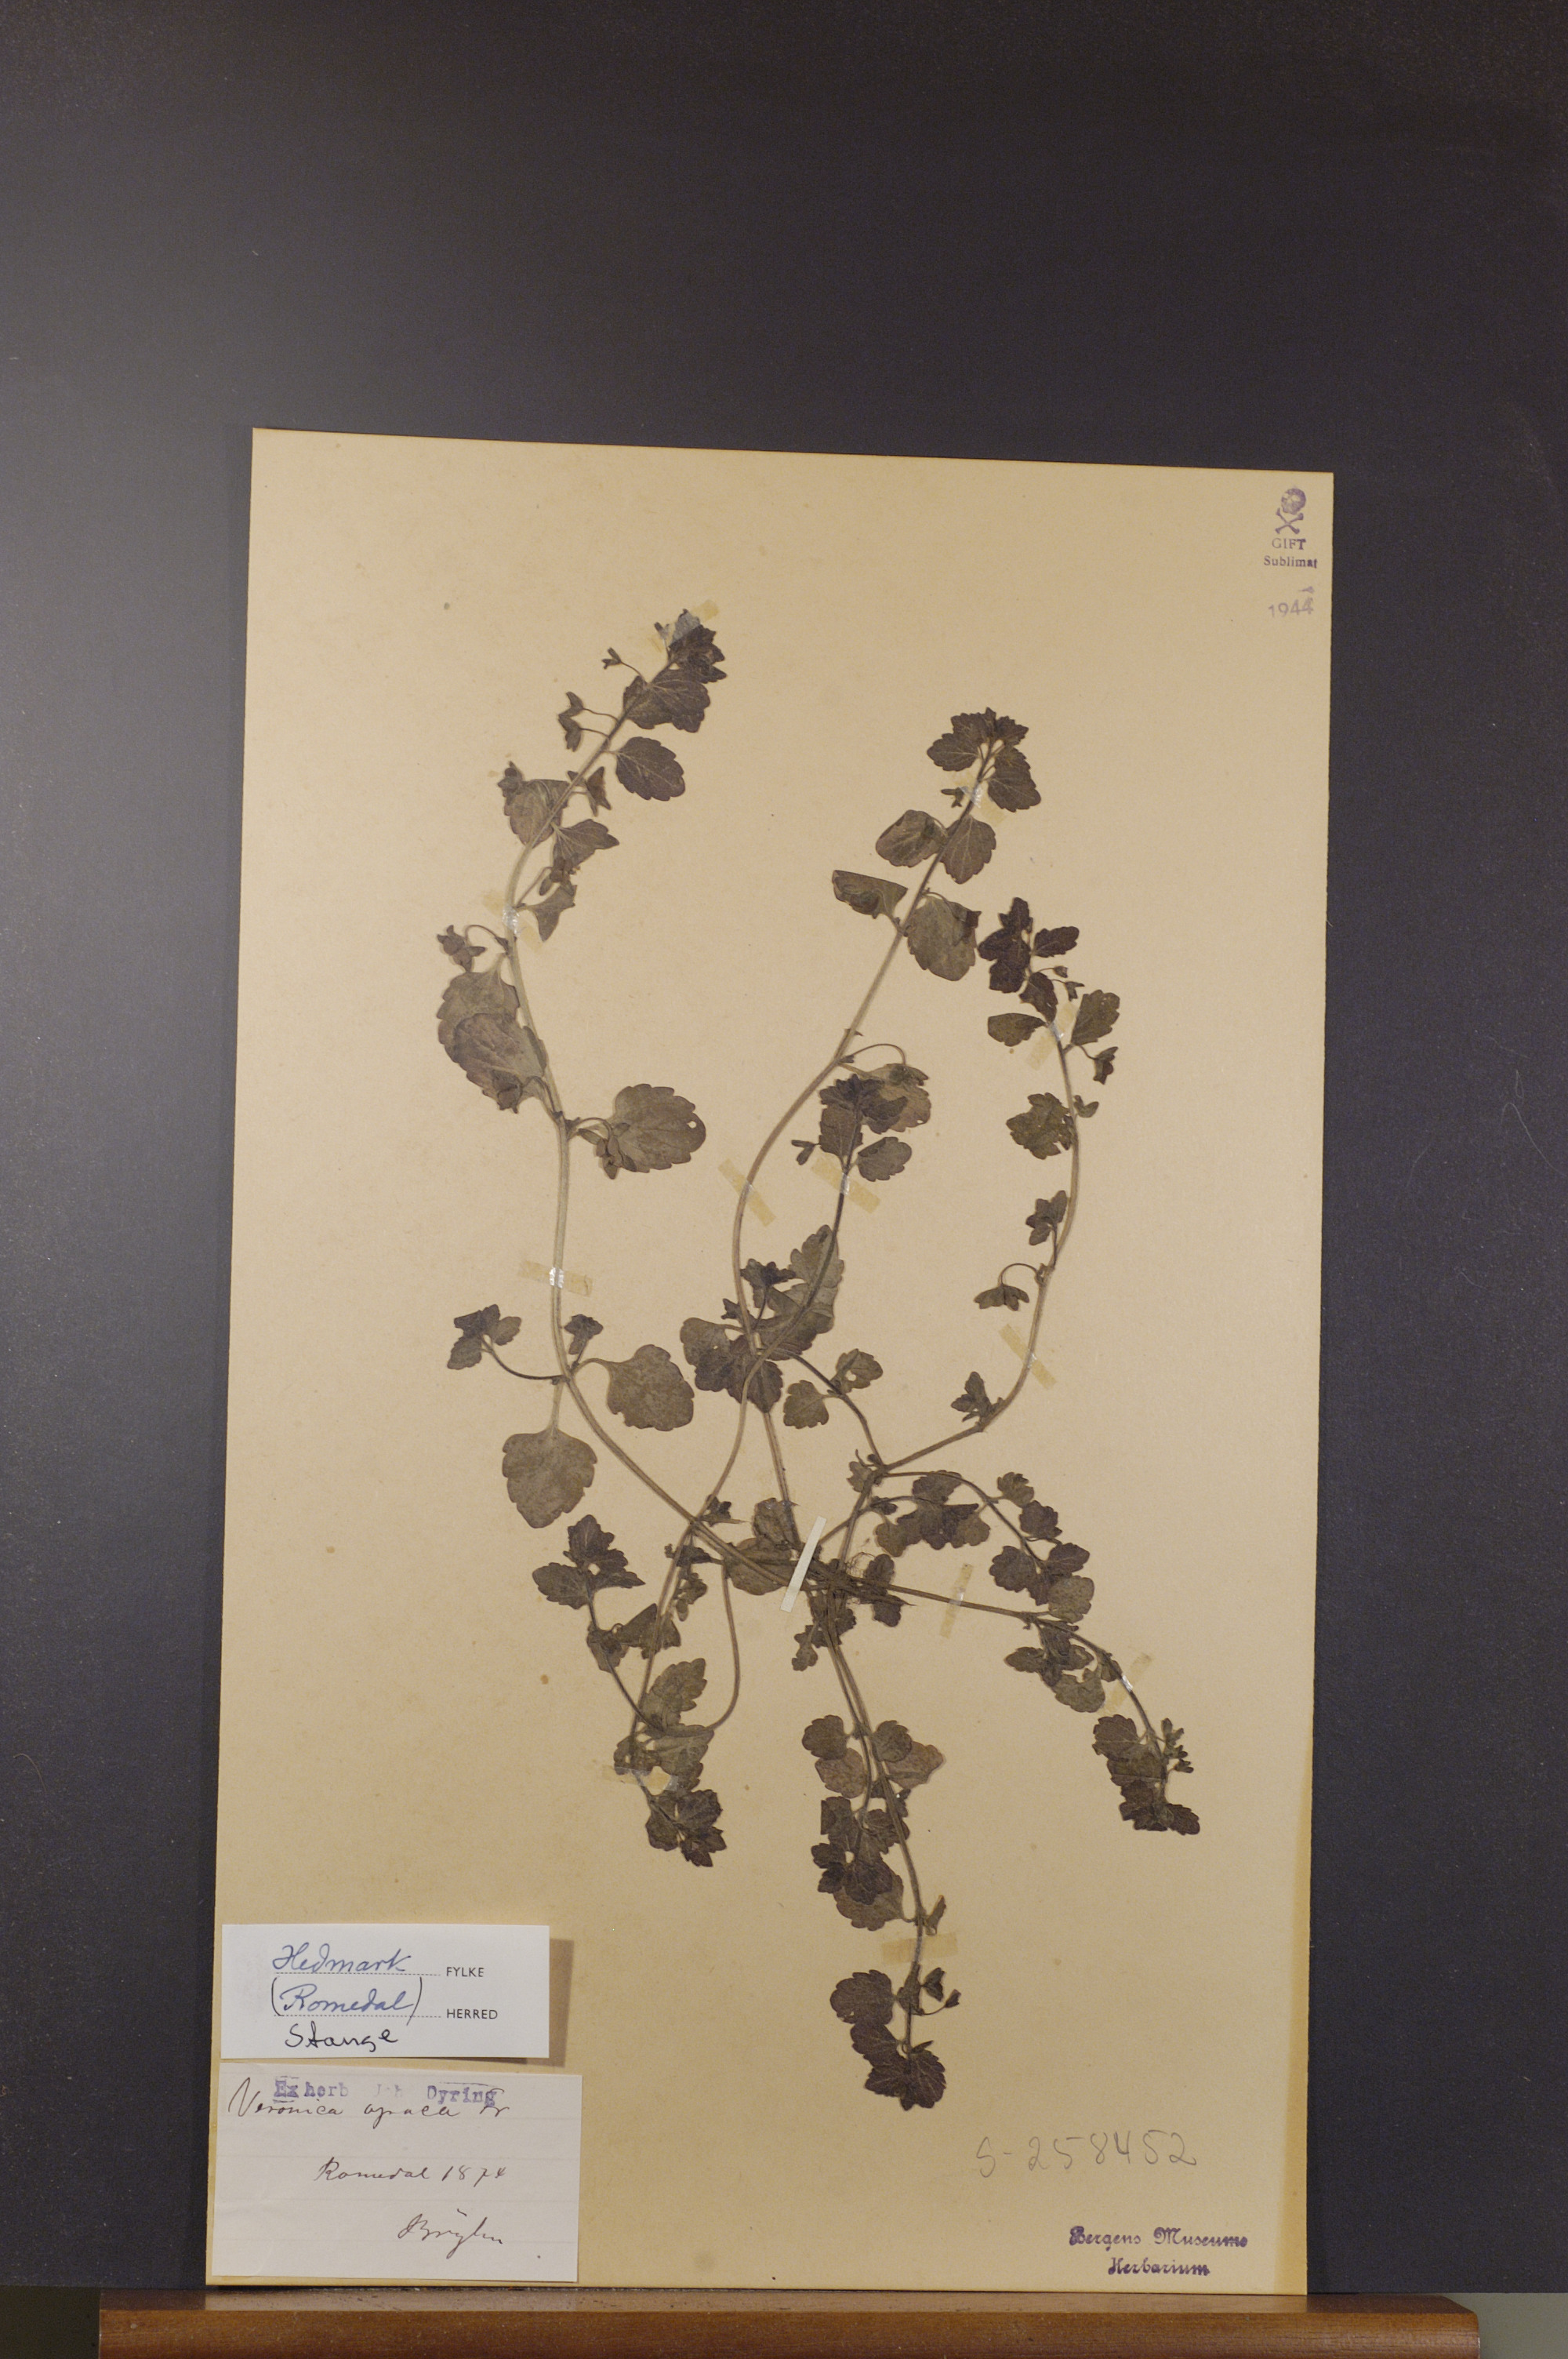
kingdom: Plantae
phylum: Tracheophyta
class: Magnoliopsida
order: Lamiales
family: Plantaginaceae
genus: Veronica
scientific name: Veronica opaca
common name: Dark speedwell
